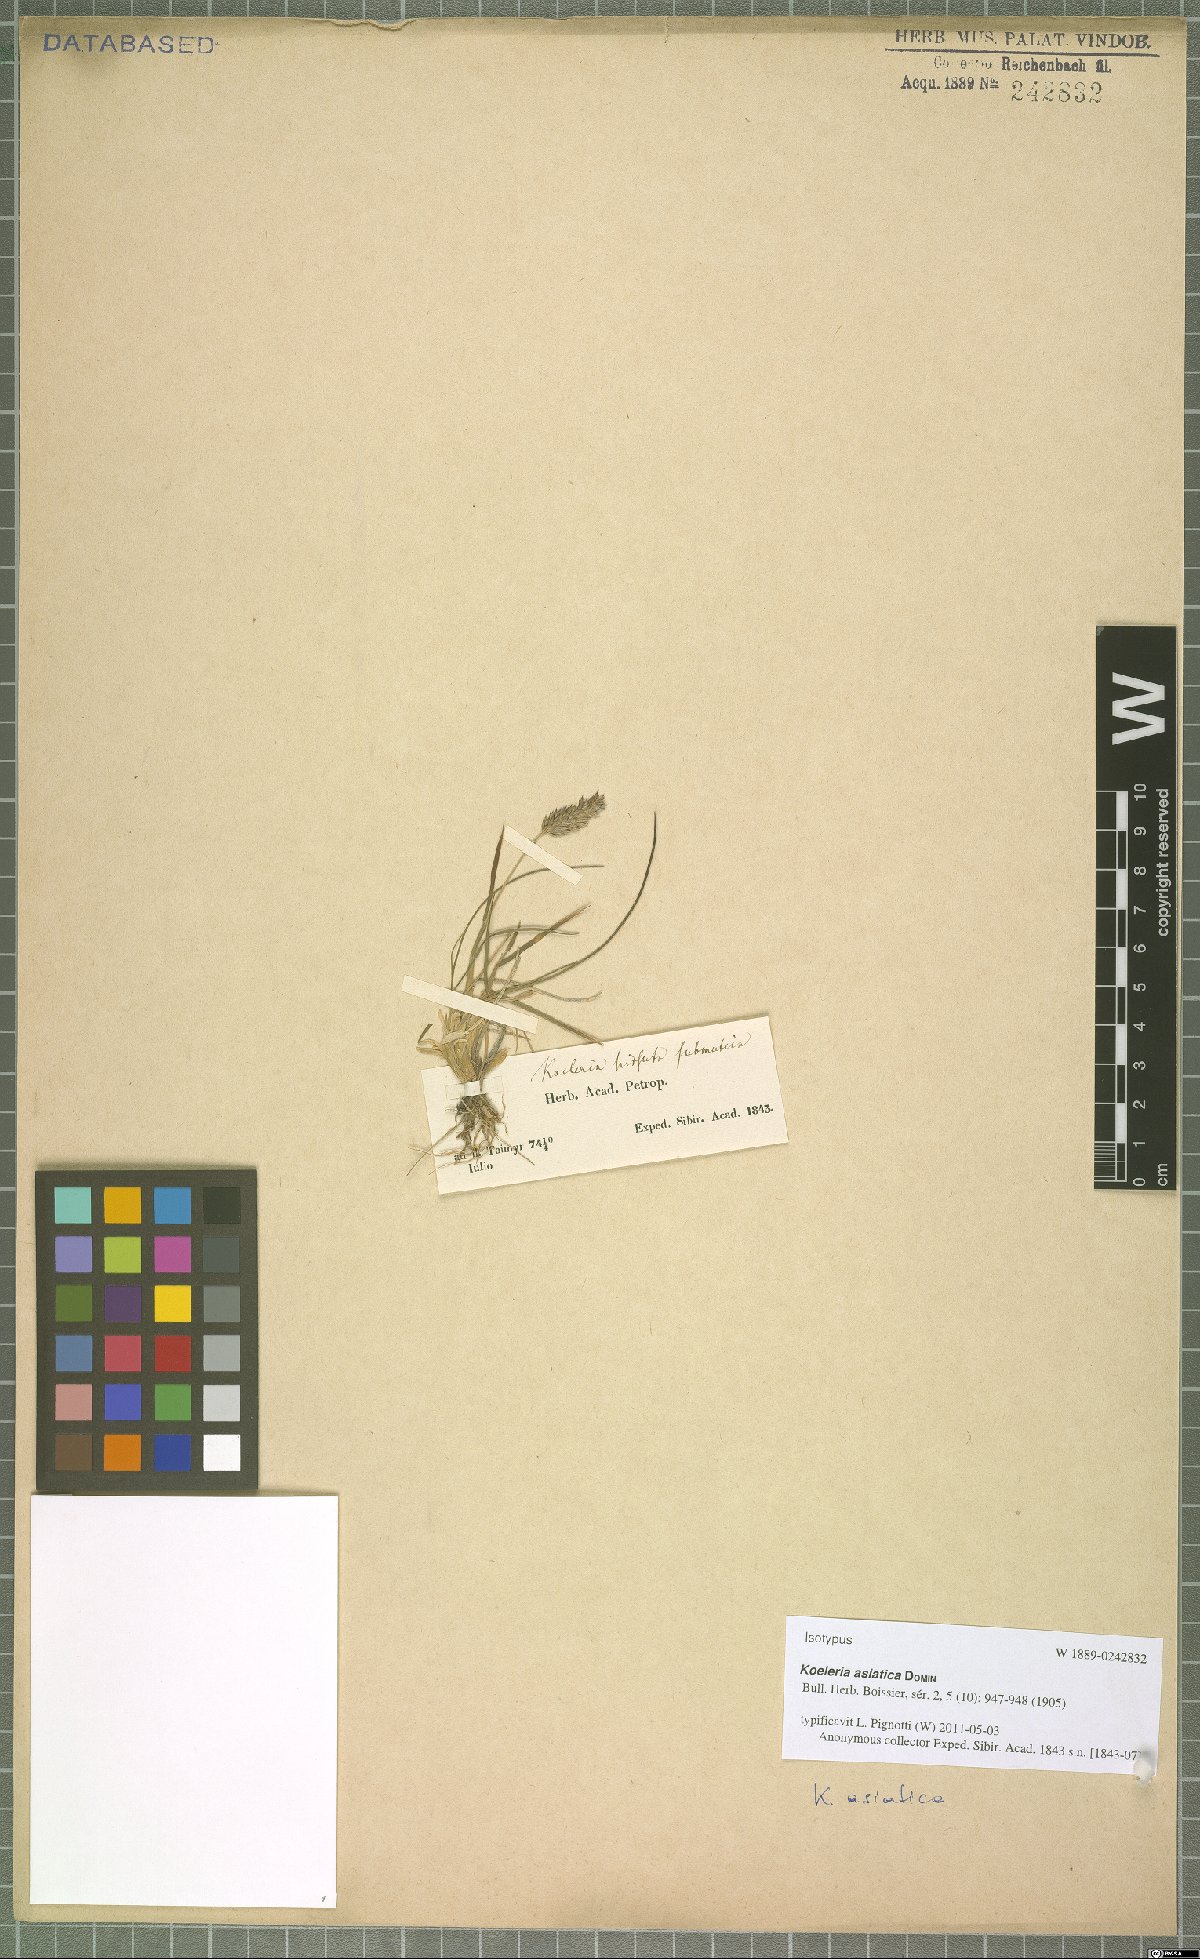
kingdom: Plantae
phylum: Tracheophyta
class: Liliopsida
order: Poales
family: Poaceae
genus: Koeleria
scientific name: Koeleria asiatica
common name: Eurasian junegrass
